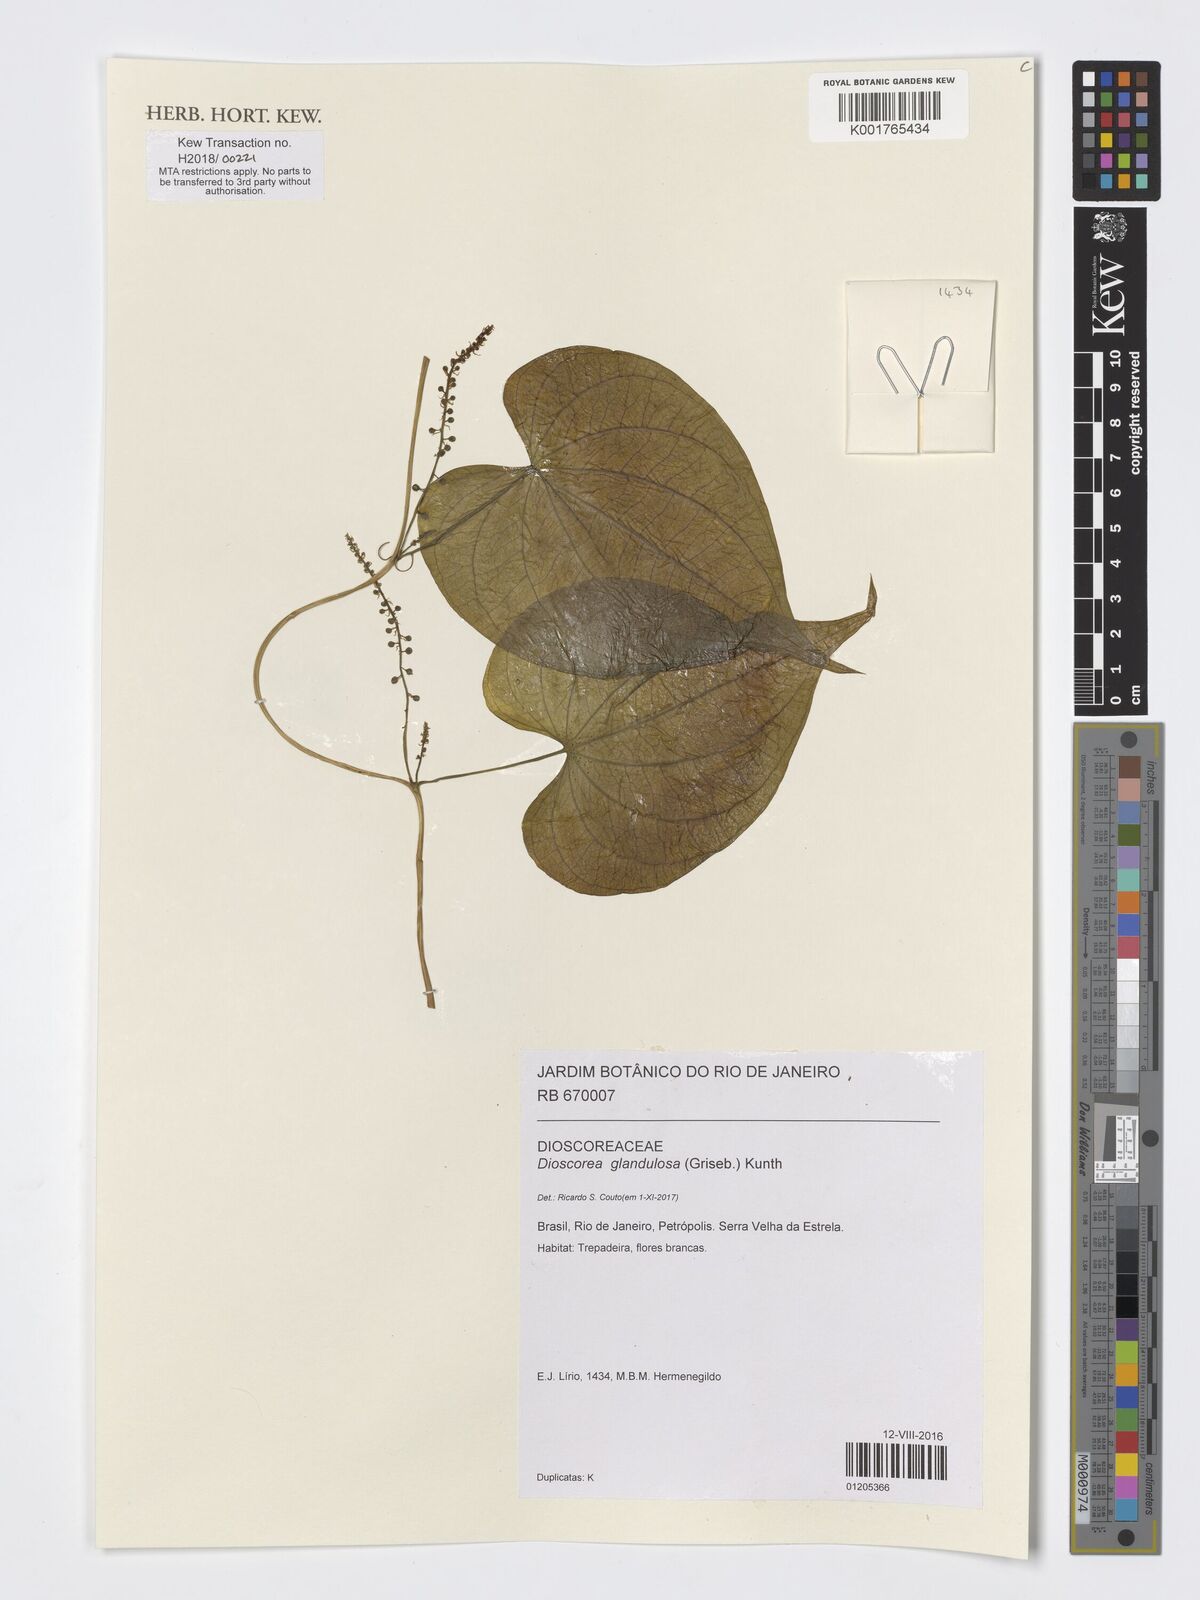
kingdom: Plantae
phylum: Tracheophyta
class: Liliopsida
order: Dioscoreales
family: Dioscoreaceae
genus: Dioscorea
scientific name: Dioscorea glandulosa
